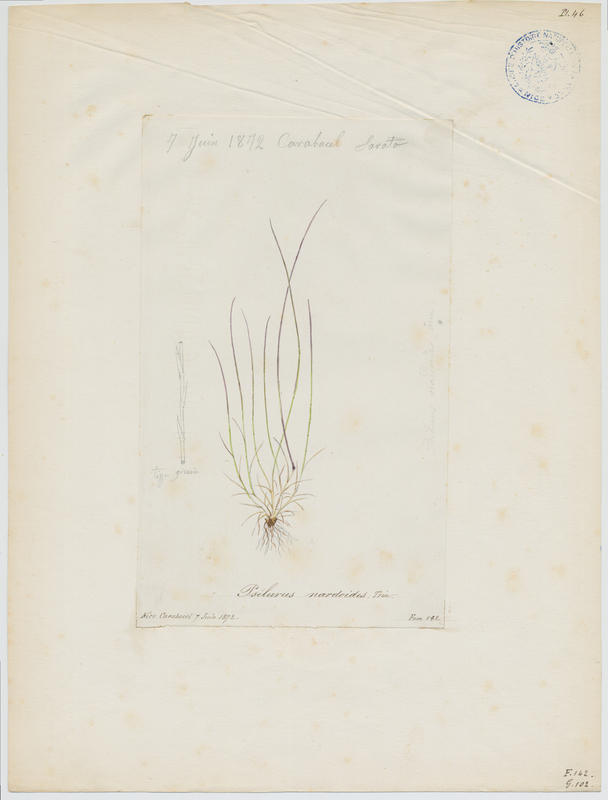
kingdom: Plantae
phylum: Tracheophyta
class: Liliopsida
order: Poales
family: Poaceae
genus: Festuca
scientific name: Festuca incurva
